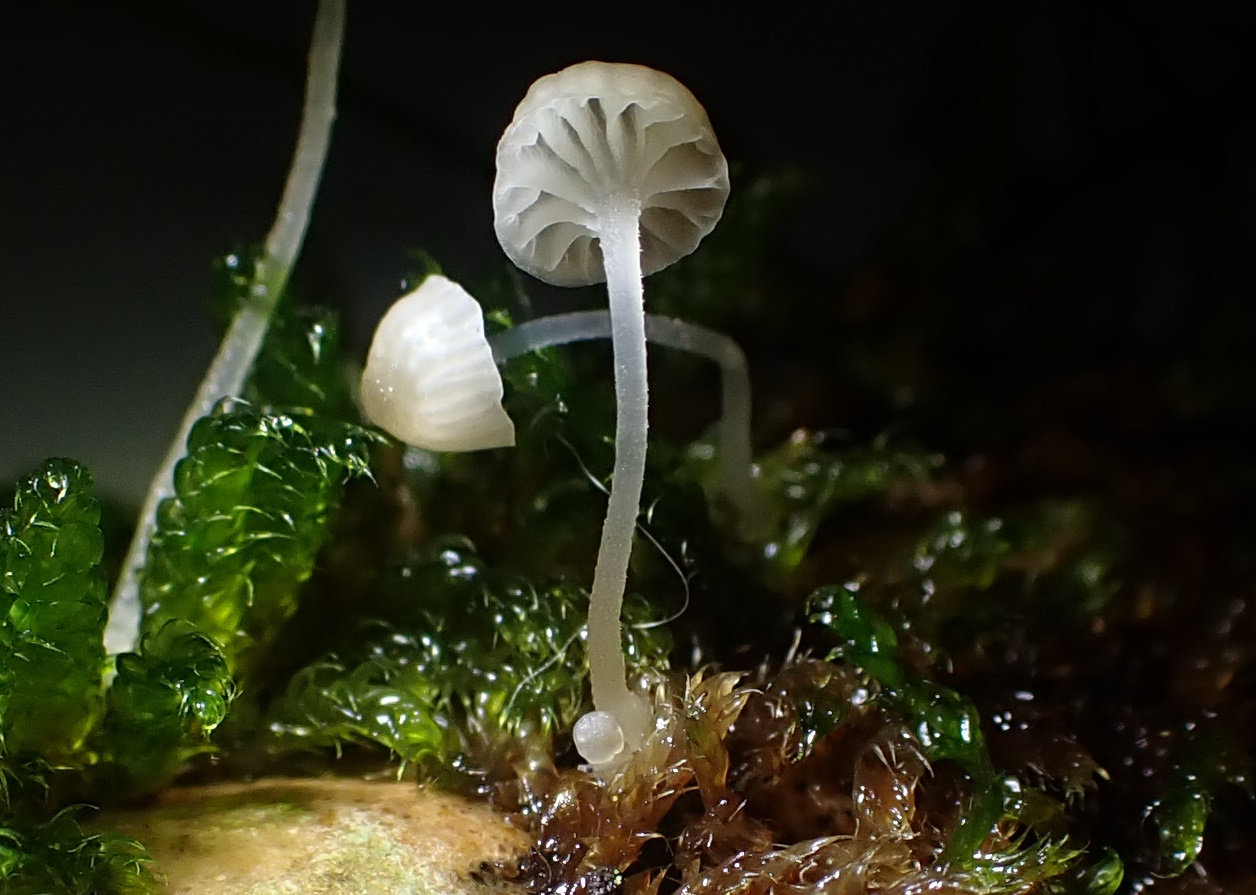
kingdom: Fungi
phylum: Basidiomycota
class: Agaricomycetes
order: Agaricales
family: Porotheleaceae
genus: Phloeomana
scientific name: Phloeomana speirea
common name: kvist-huesvamp
